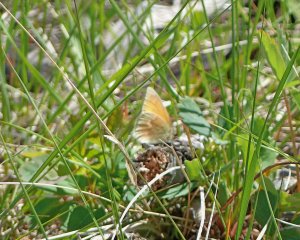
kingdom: Animalia
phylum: Arthropoda
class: Insecta
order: Lepidoptera
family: Nymphalidae
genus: Erebia
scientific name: Erebia epipsodea
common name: Common Alpine
